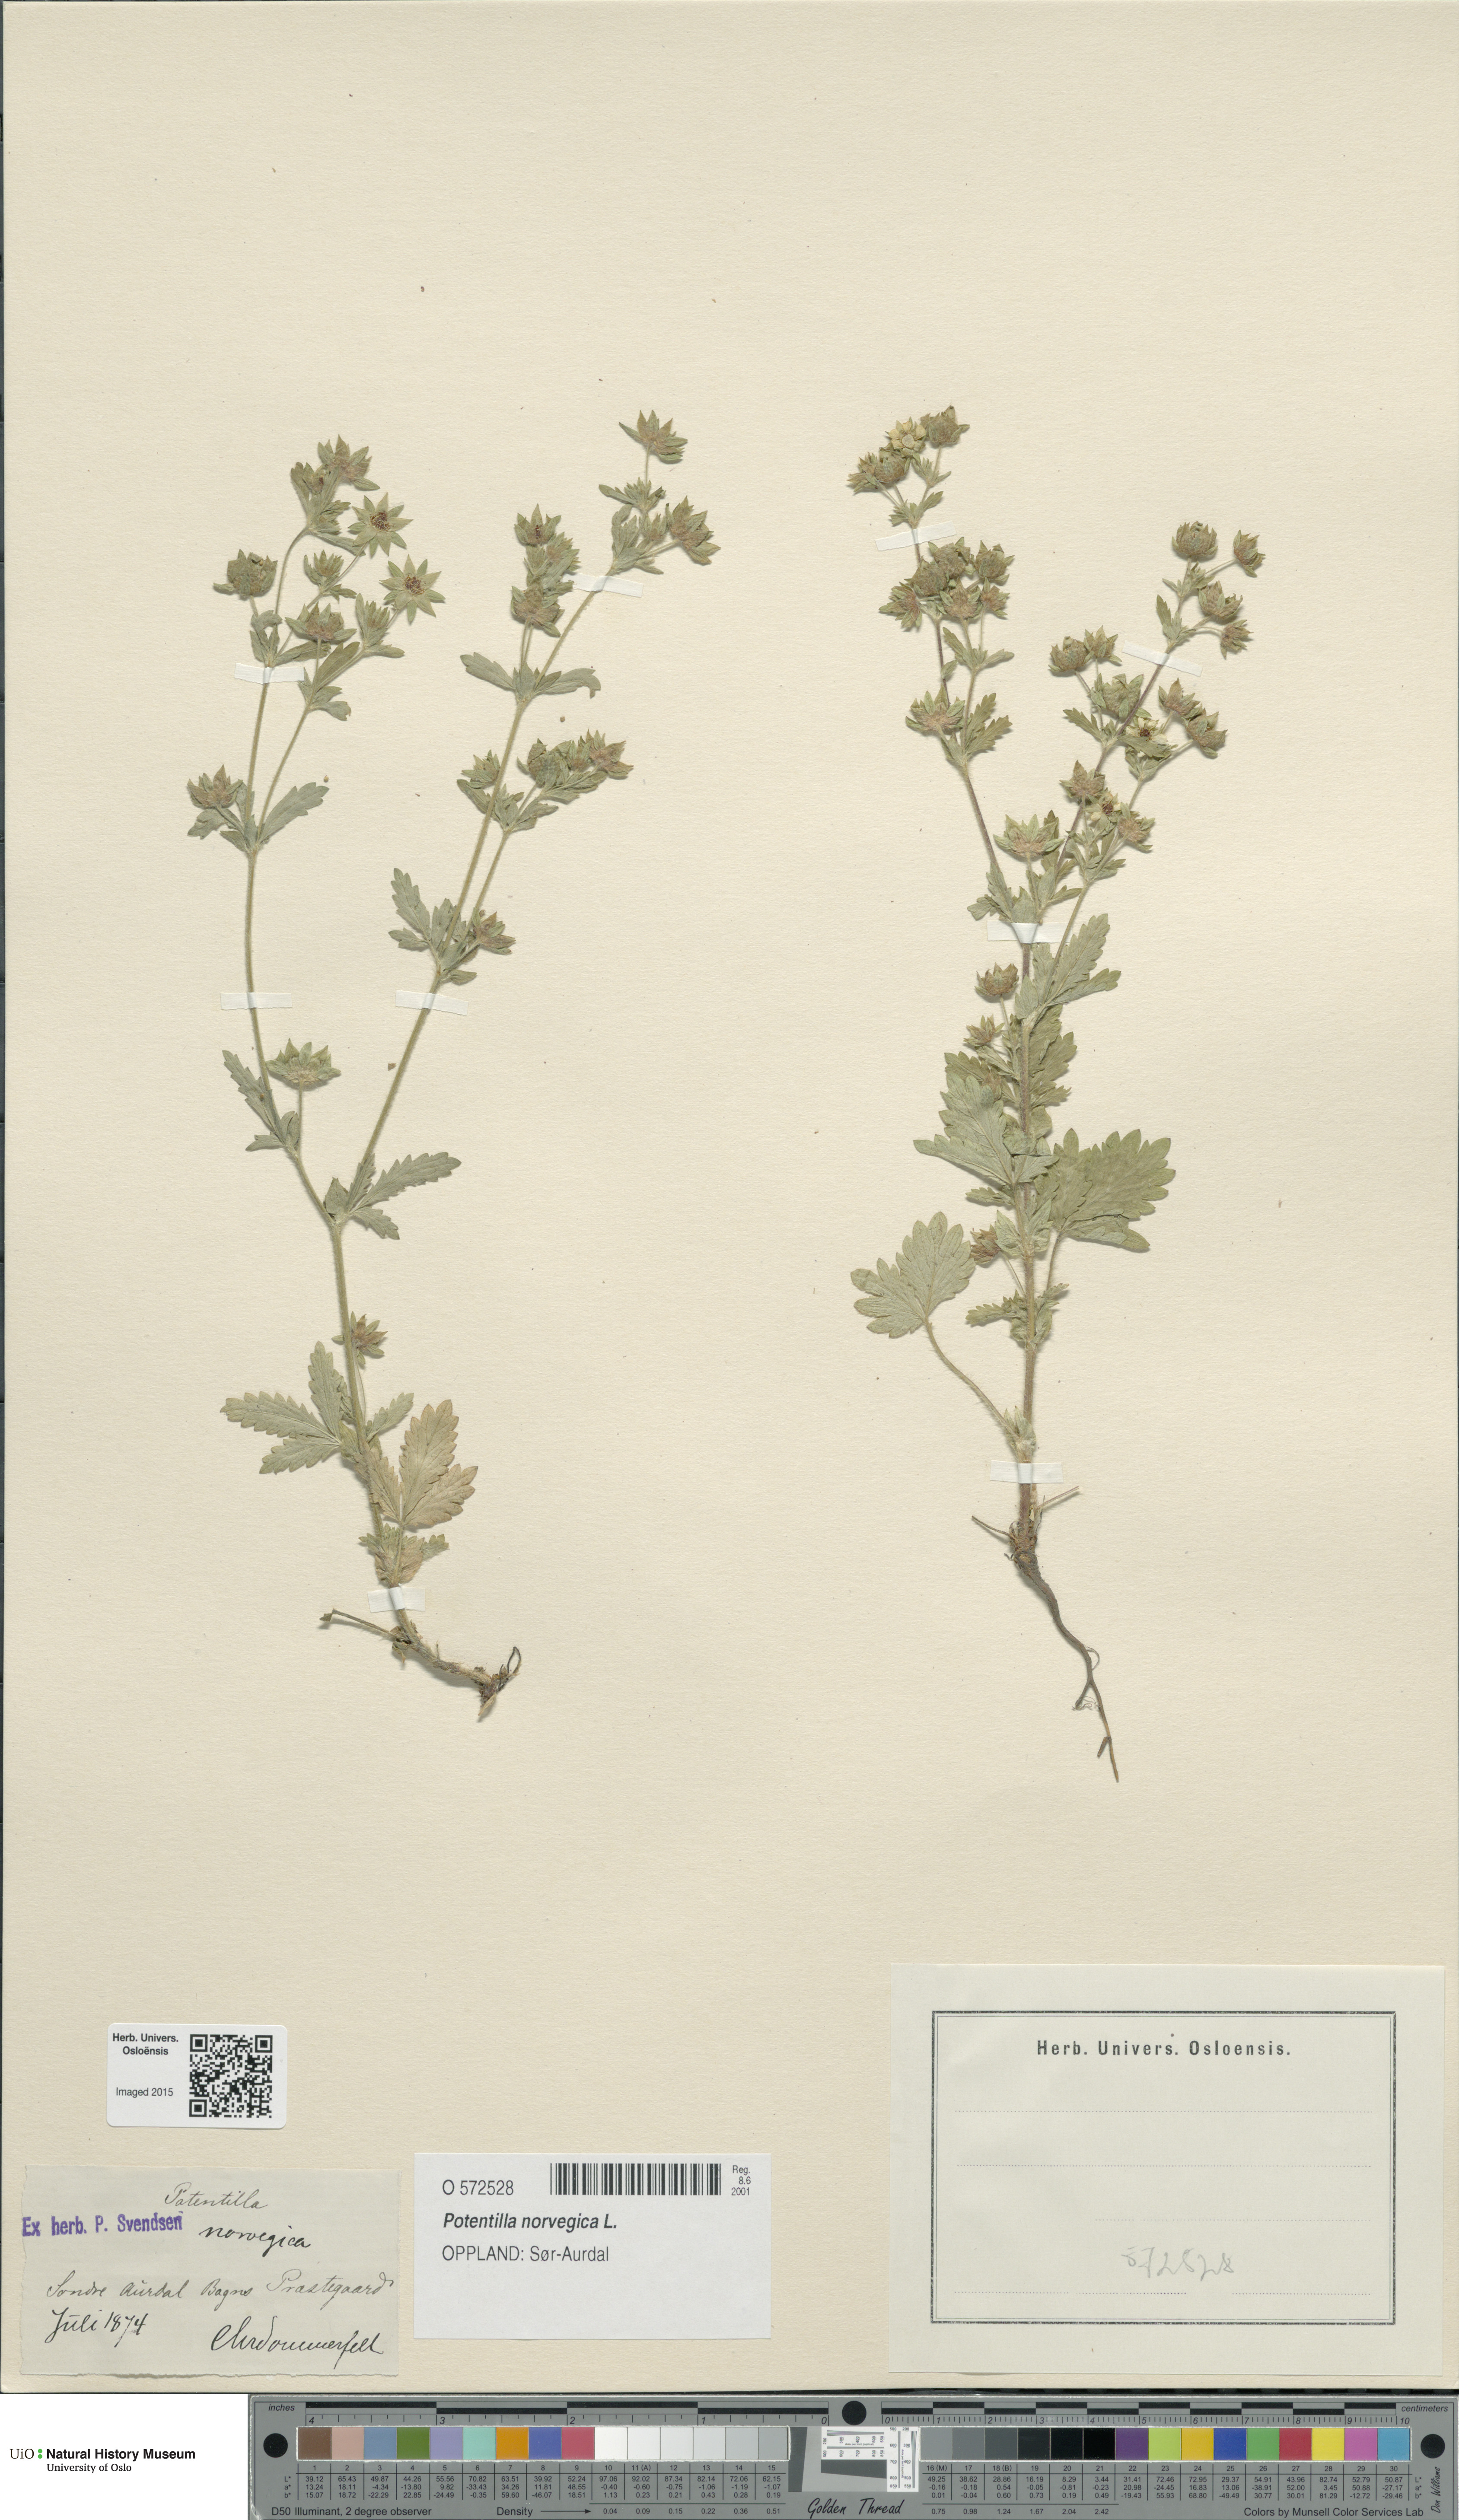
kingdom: Plantae
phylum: Tracheophyta
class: Magnoliopsida
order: Rosales
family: Rosaceae
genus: Potentilla
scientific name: Potentilla norvegica
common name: Ternate-leaved cinquefoil
